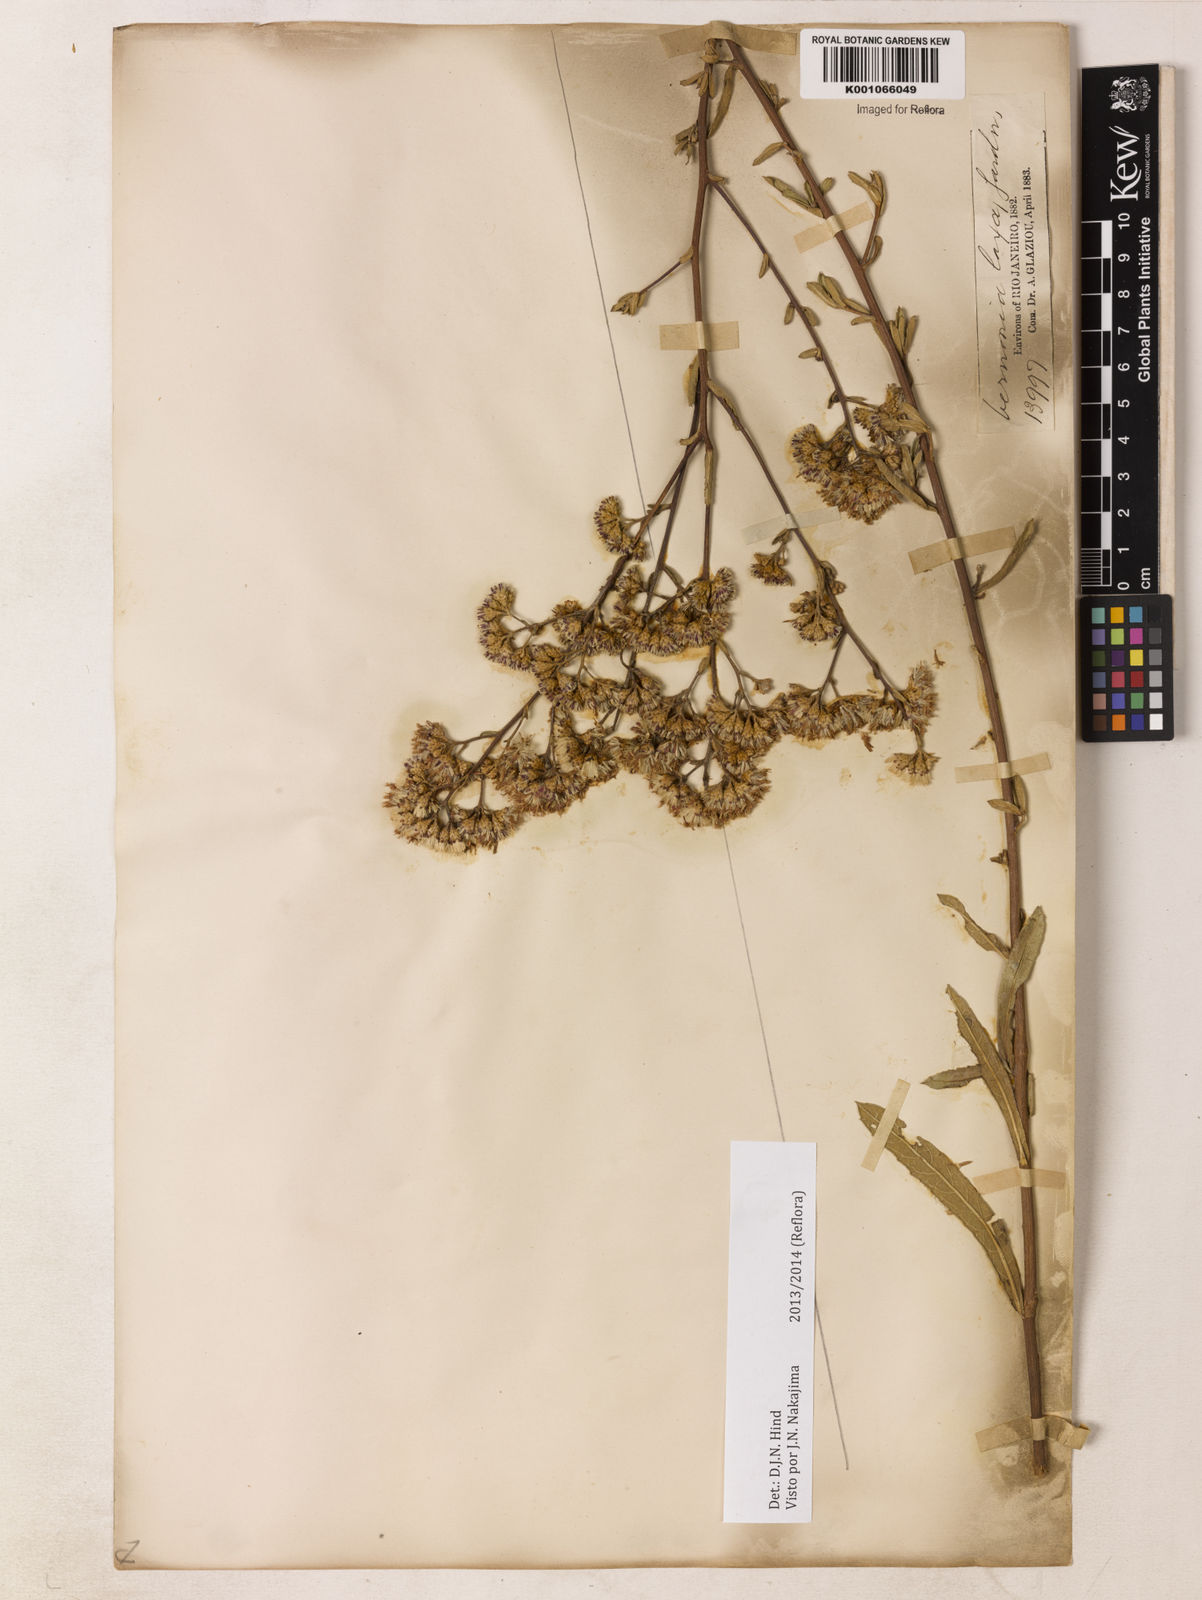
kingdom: Plantae
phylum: Tracheophyta
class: Magnoliopsida
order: Asterales
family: Asteraceae
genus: Vernonanthura
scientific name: Vernonanthura laxa
